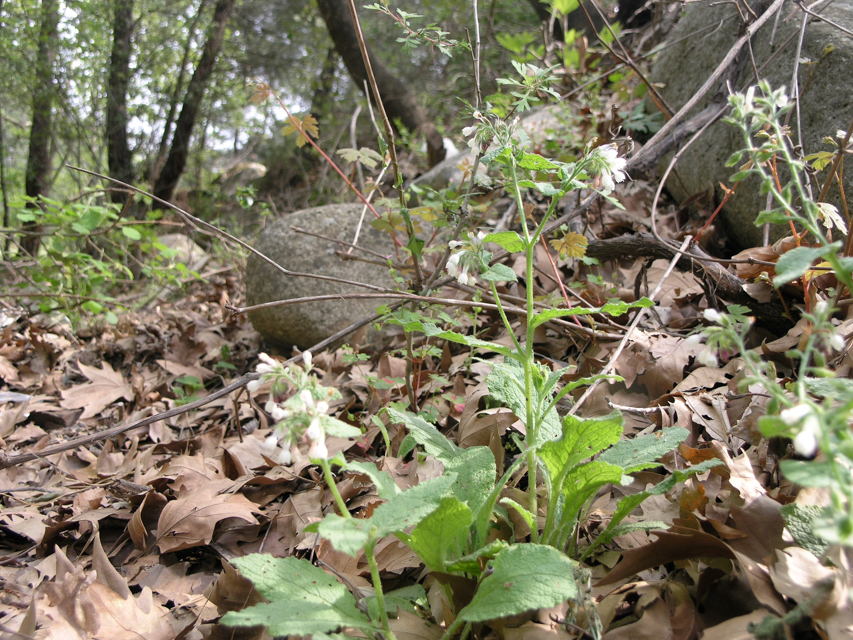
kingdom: Plantae
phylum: Tracheophyta
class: Magnoliopsida
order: Boraginales
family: Boraginaceae
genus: Symphytum
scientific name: Symphytum anatolicum
